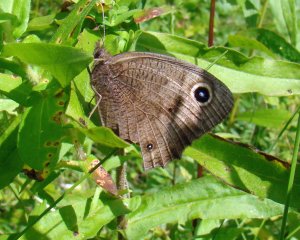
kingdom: Animalia
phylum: Arthropoda
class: Insecta
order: Lepidoptera
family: Nymphalidae
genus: Cercyonis
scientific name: Cercyonis pegala
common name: Common Wood-Nymph
